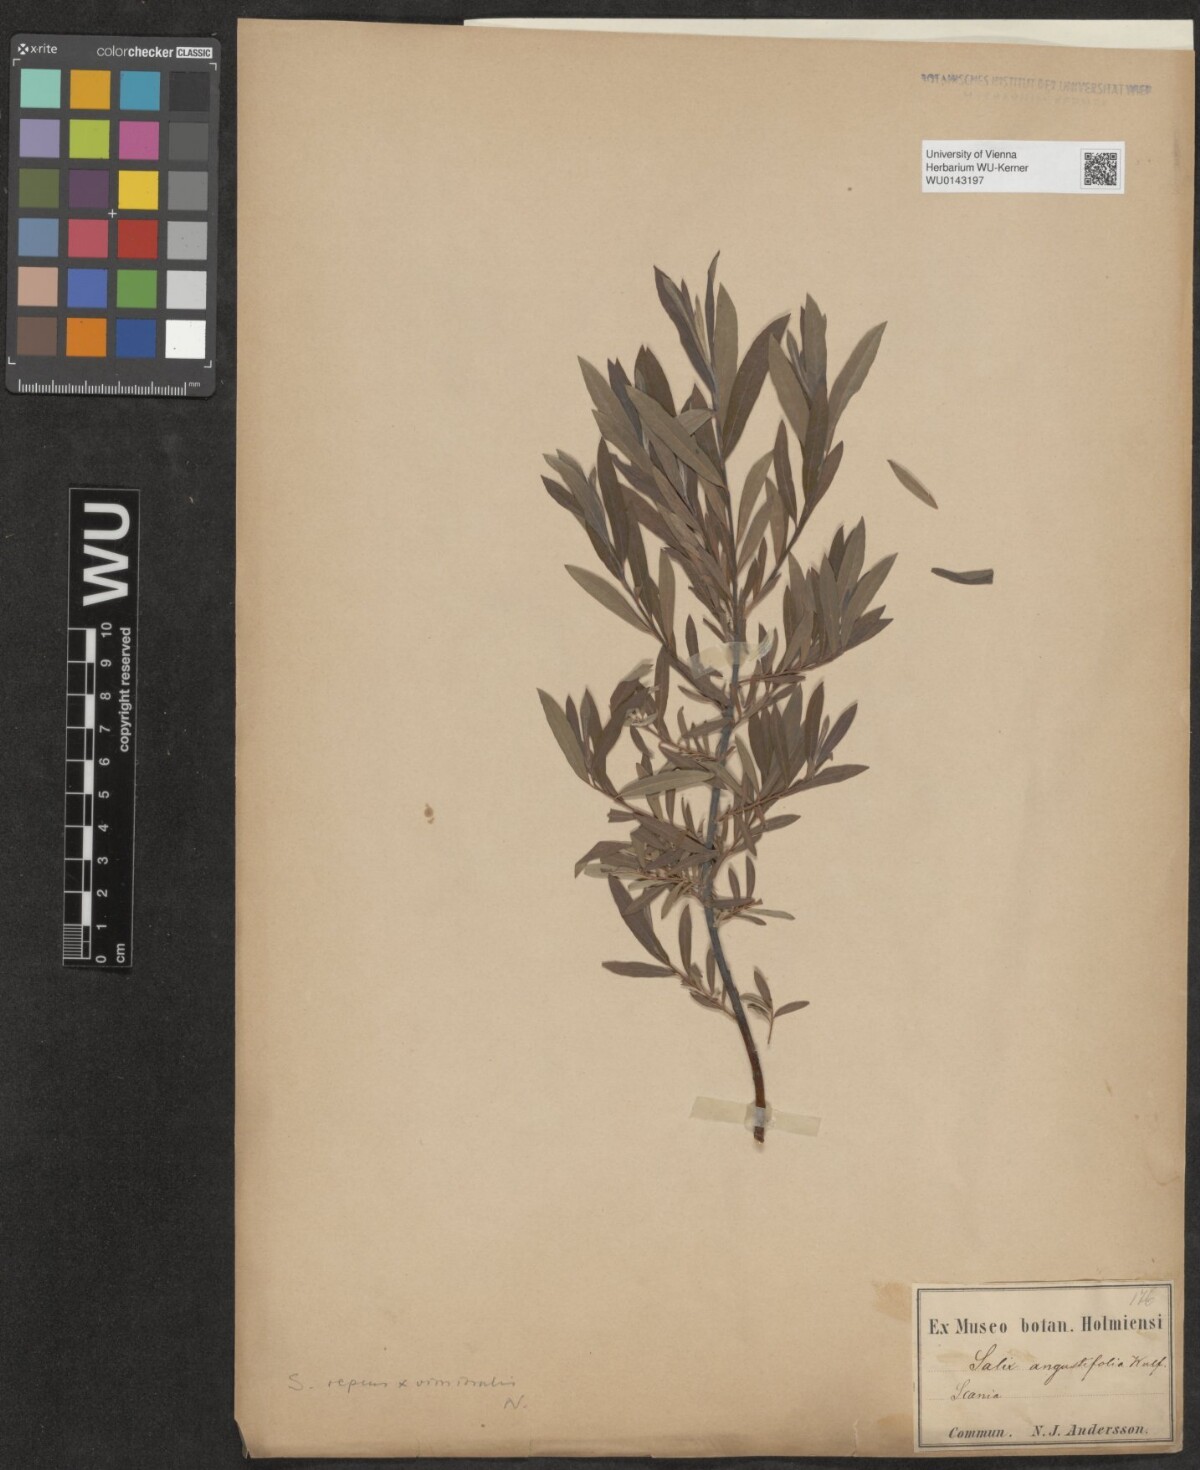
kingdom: Plantae
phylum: Tracheophyta
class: Magnoliopsida
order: Malpighiales
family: Salicaceae
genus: Salix
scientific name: Salix repens
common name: Creeping willow
